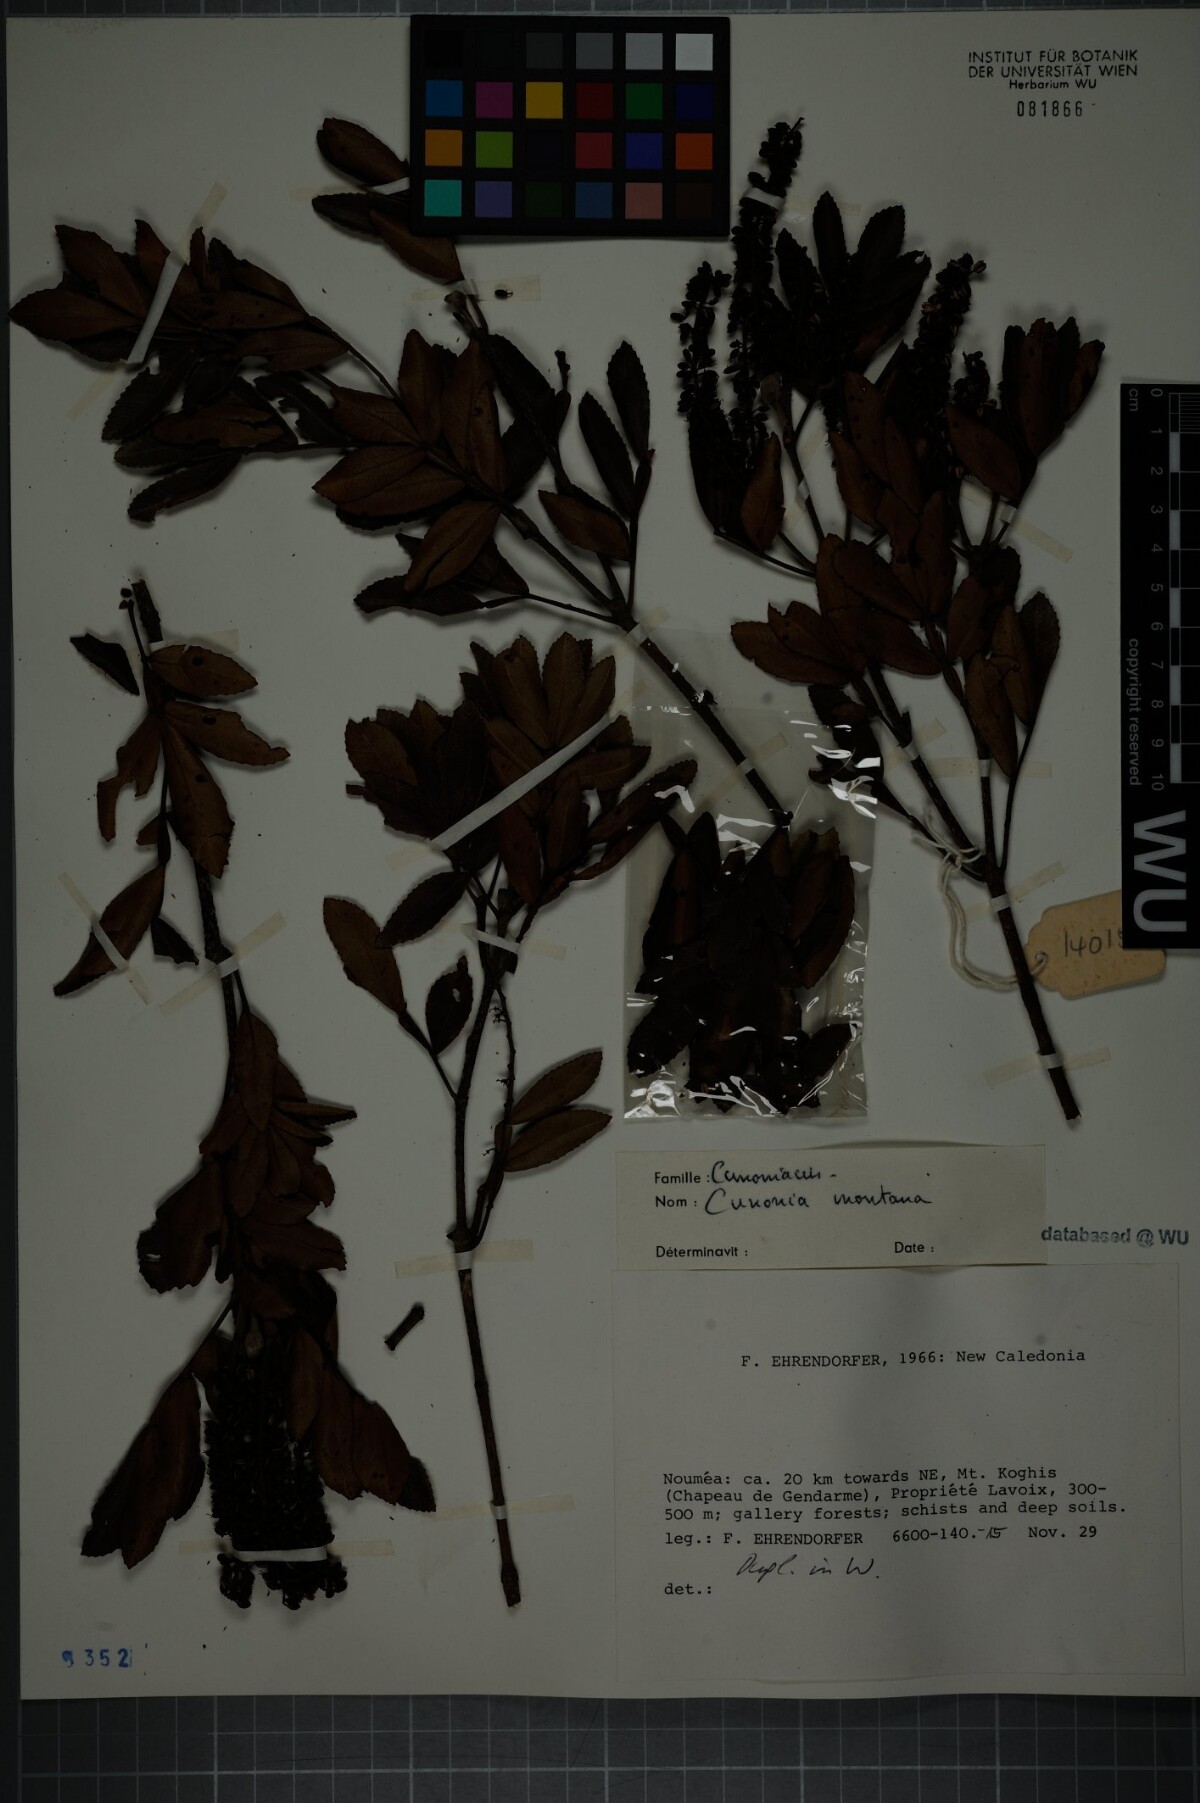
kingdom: Plantae
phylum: Tracheophyta
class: Magnoliopsida
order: Oxalidales
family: Cunoniaceae
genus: Cunonia
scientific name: Cunonia montana
